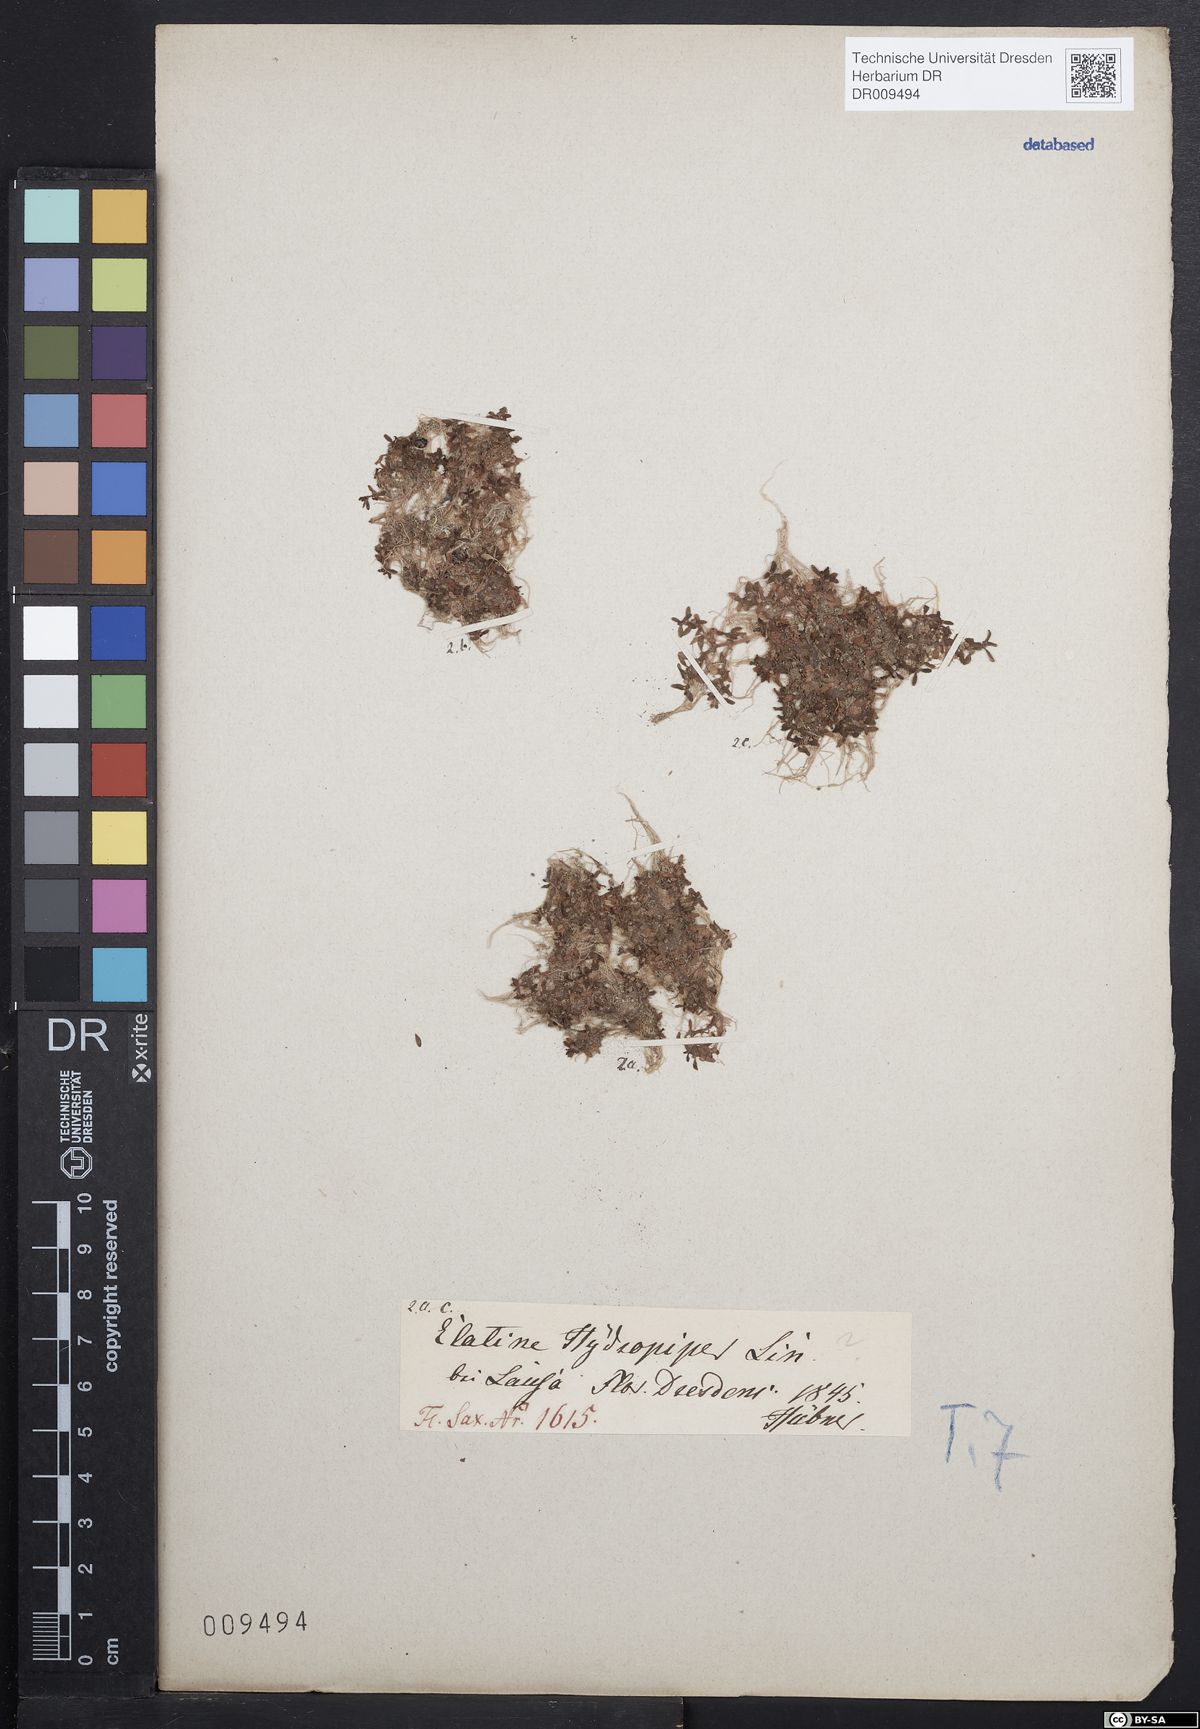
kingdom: Plantae
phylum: Tracheophyta
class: Magnoliopsida
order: Malpighiales
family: Elatinaceae
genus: Elatine
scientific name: Elatine hydropiper
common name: Eight-stamened waterwort
